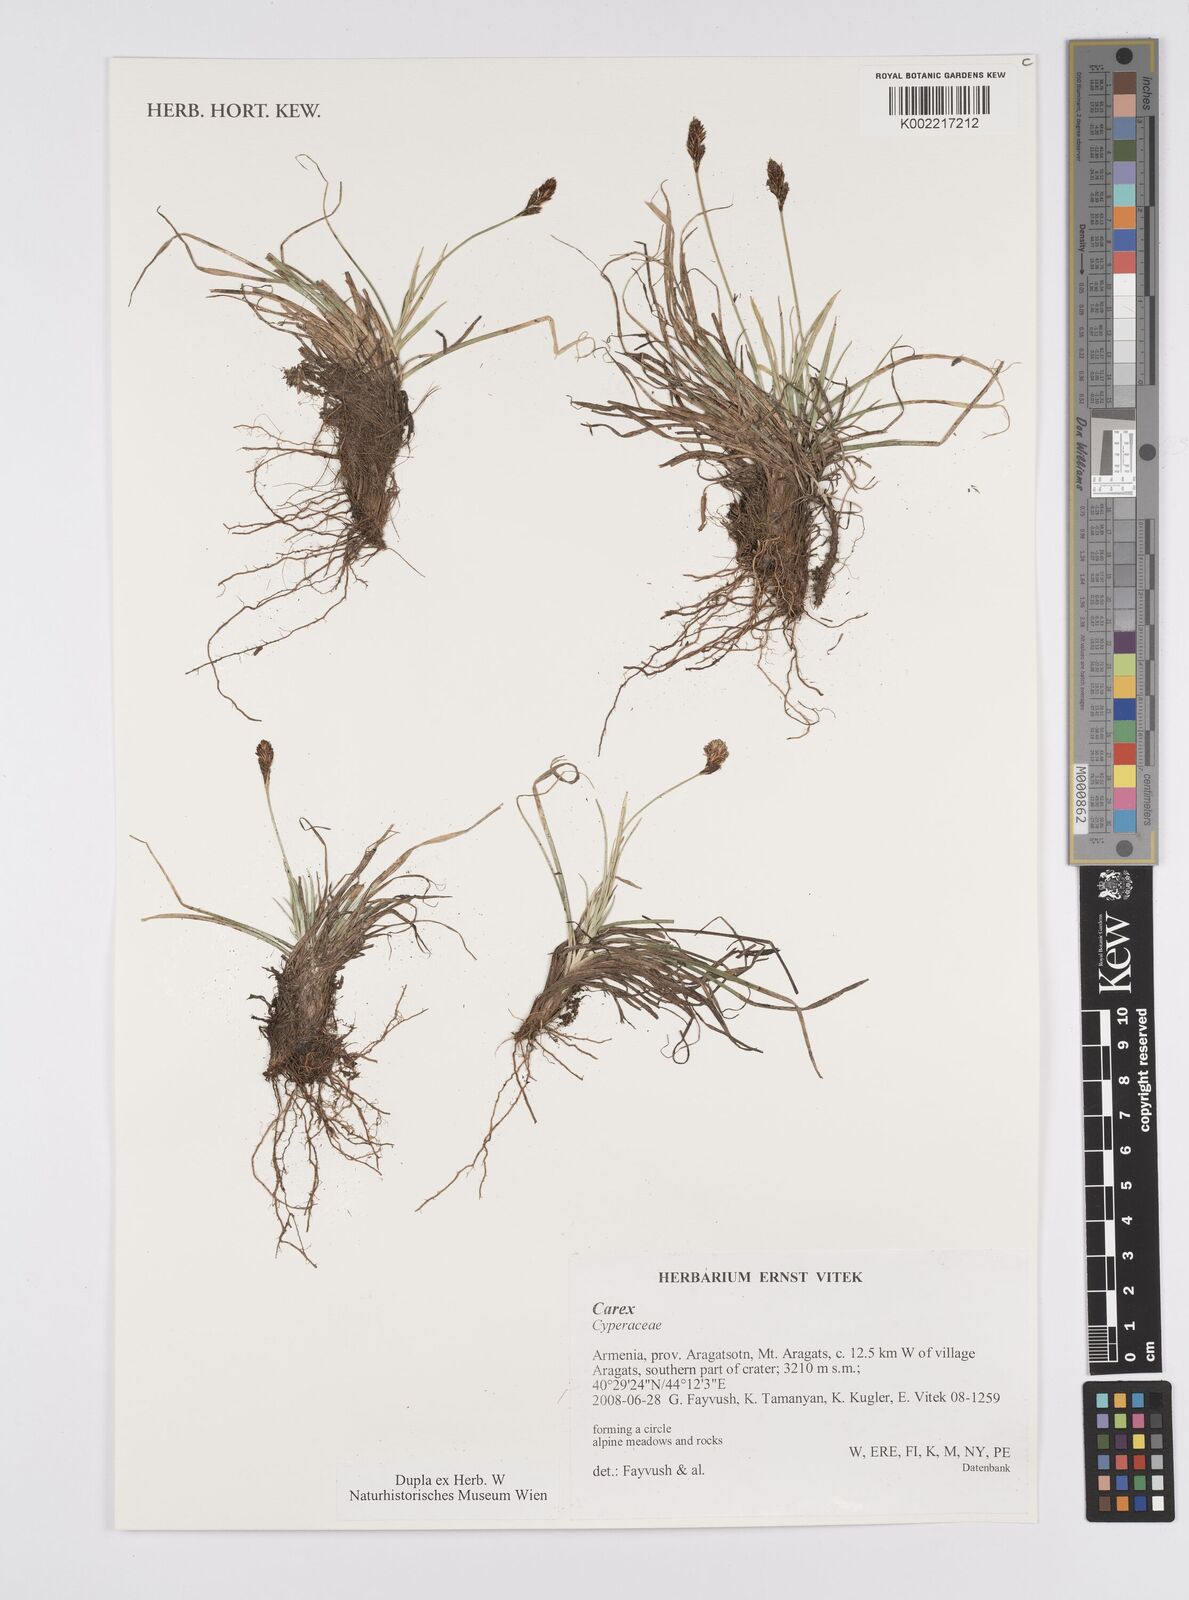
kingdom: Plantae
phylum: Tracheophyta
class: Liliopsida
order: Poales
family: Cyperaceae
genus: Carex
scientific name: Carex
